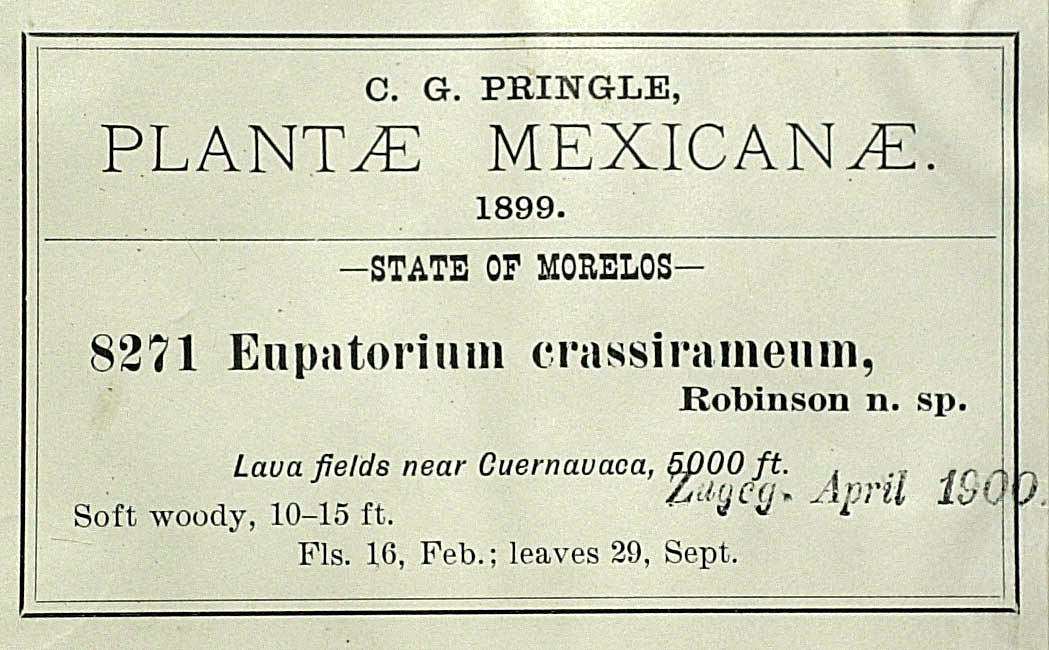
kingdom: Plantae
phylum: Tracheophyta
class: Magnoliopsida
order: Asterales
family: Asteraceae
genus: Ageratina
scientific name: Ageratina crassiramea
